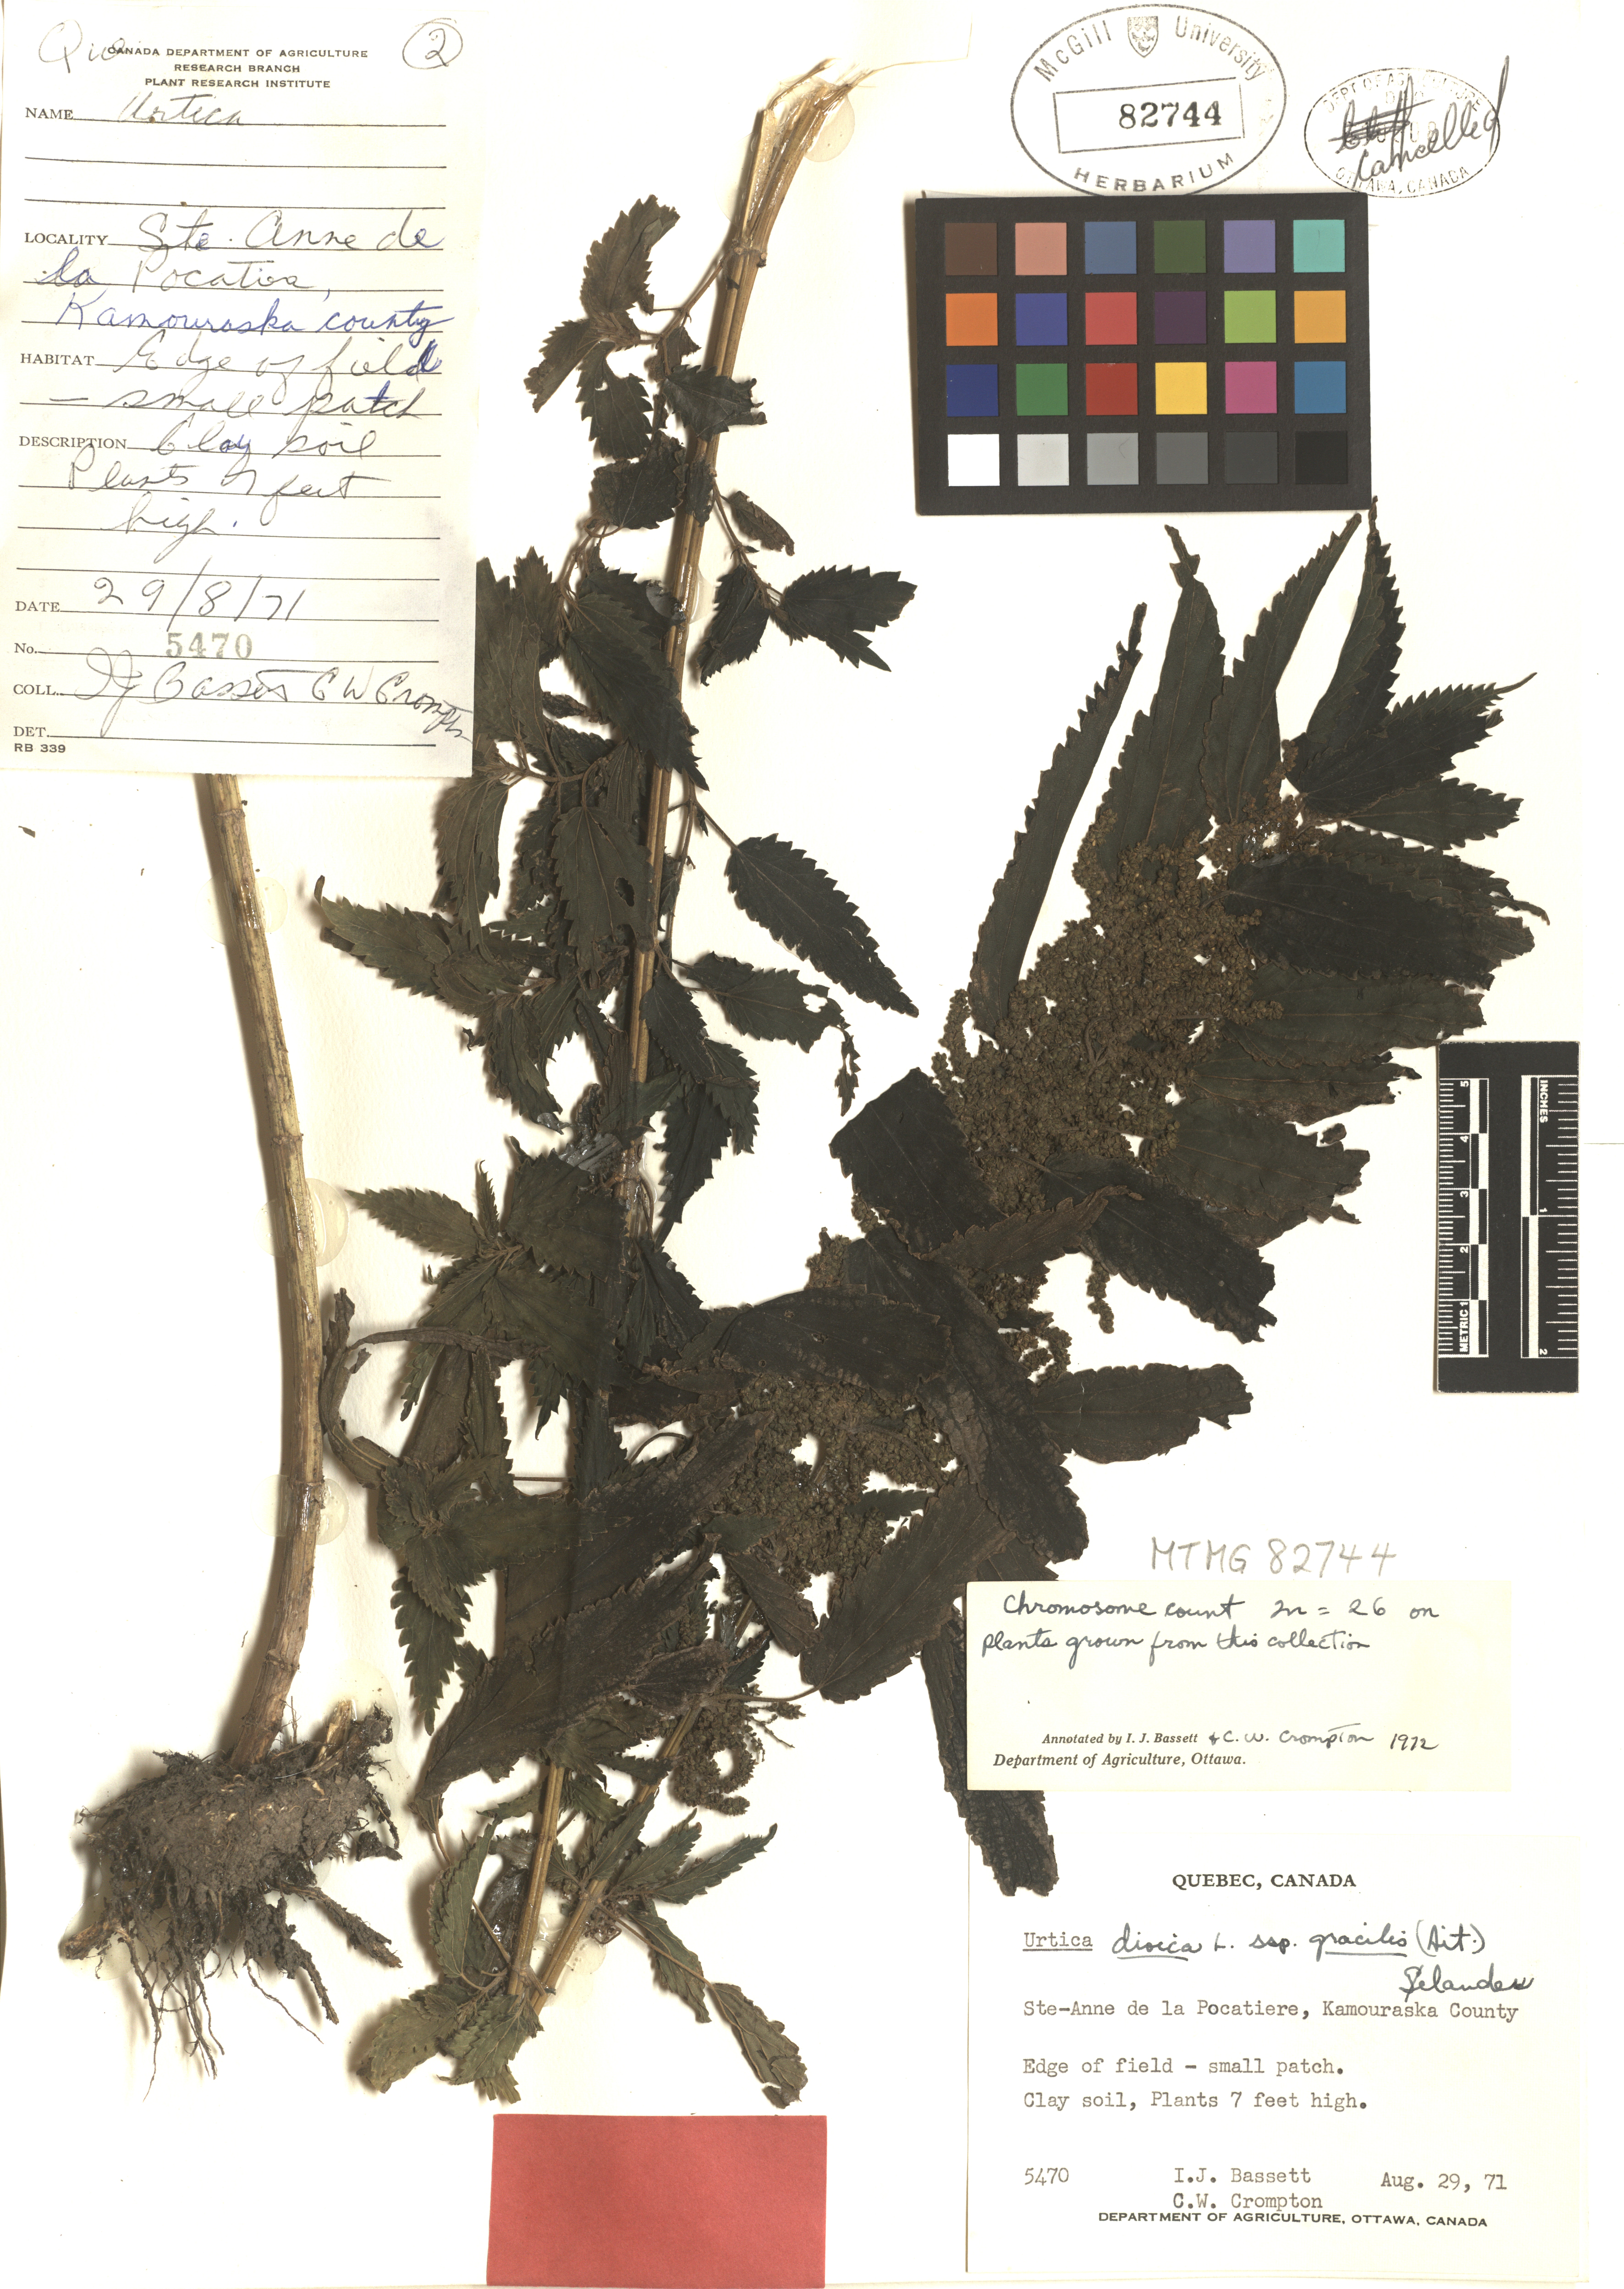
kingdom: Plantae
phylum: Tracheophyta
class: Magnoliopsida
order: Rosales
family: Urticaceae
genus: Urtica
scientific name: Urtica gracilis
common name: Slender stinging nettle
